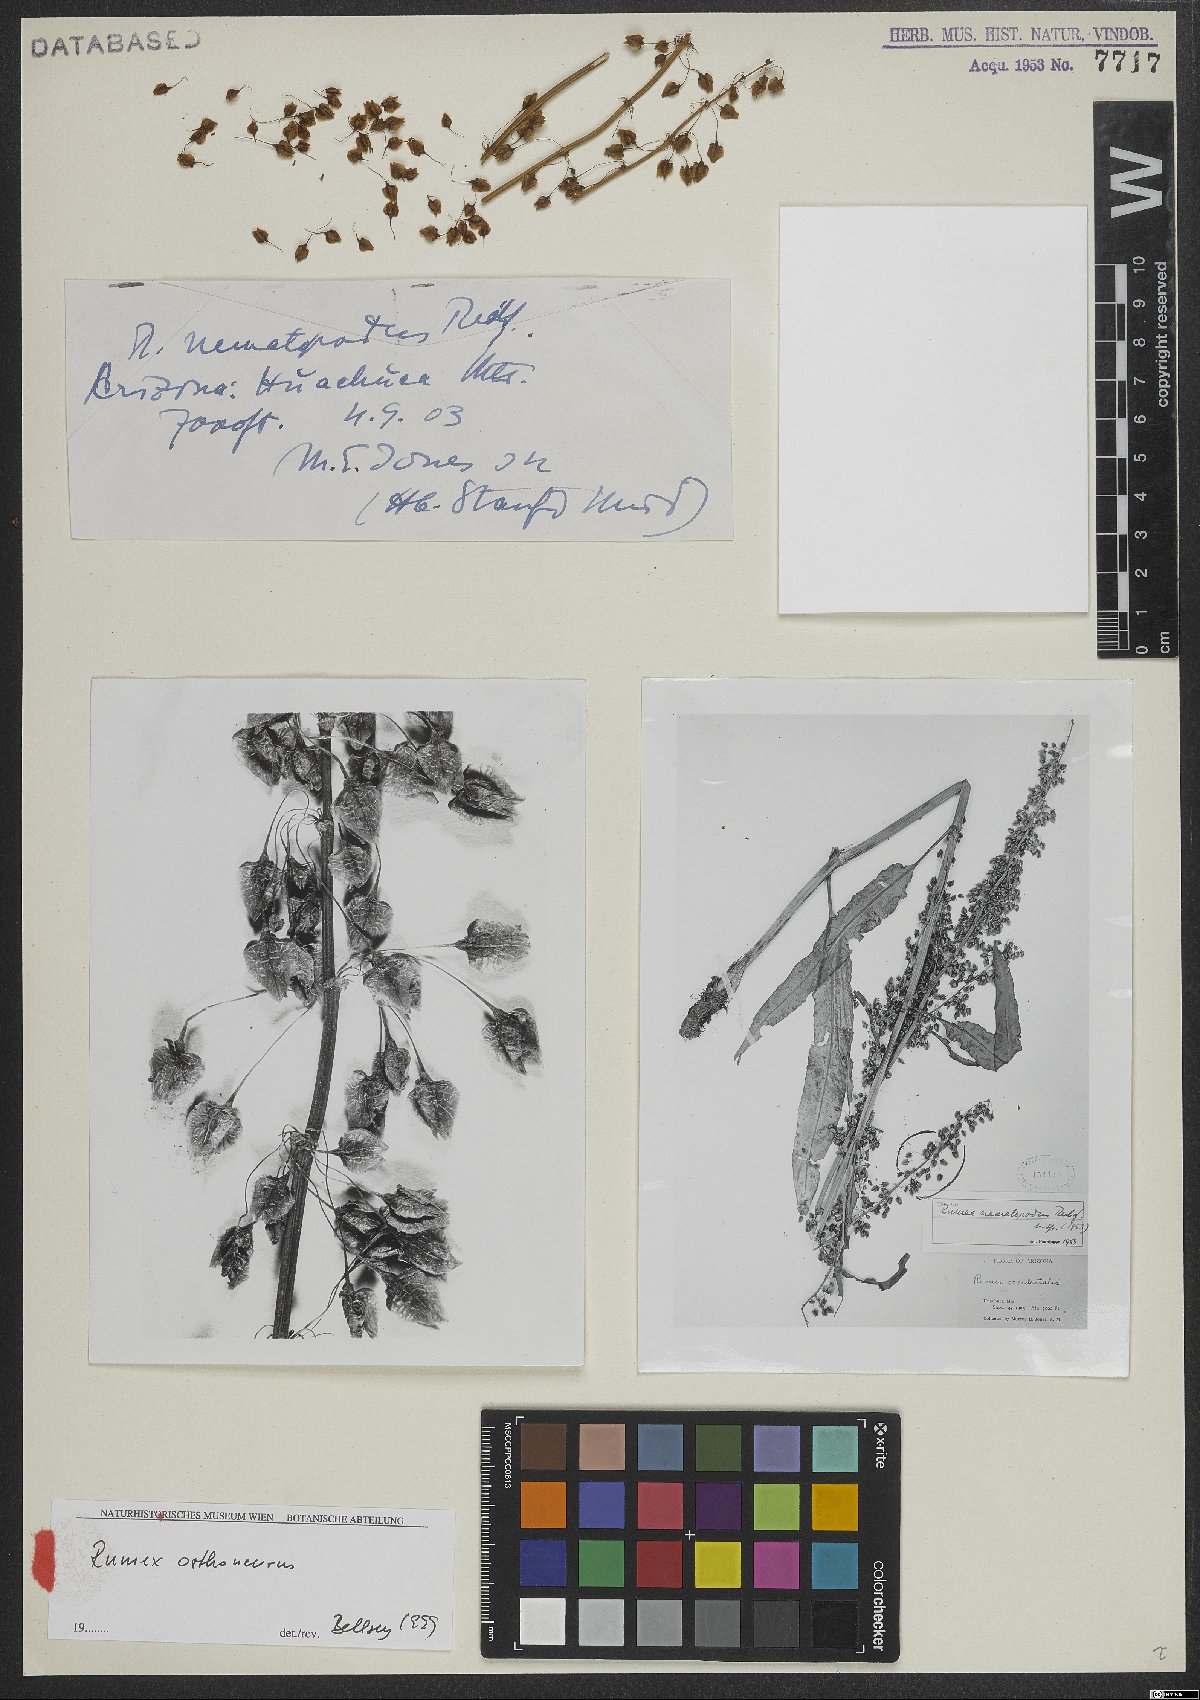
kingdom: Plantae
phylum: Tracheophyta
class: Magnoliopsida
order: Caryophyllales
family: Polygonaceae
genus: Rumex
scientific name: Rumex orthoneurus
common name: Chiricahua dock
